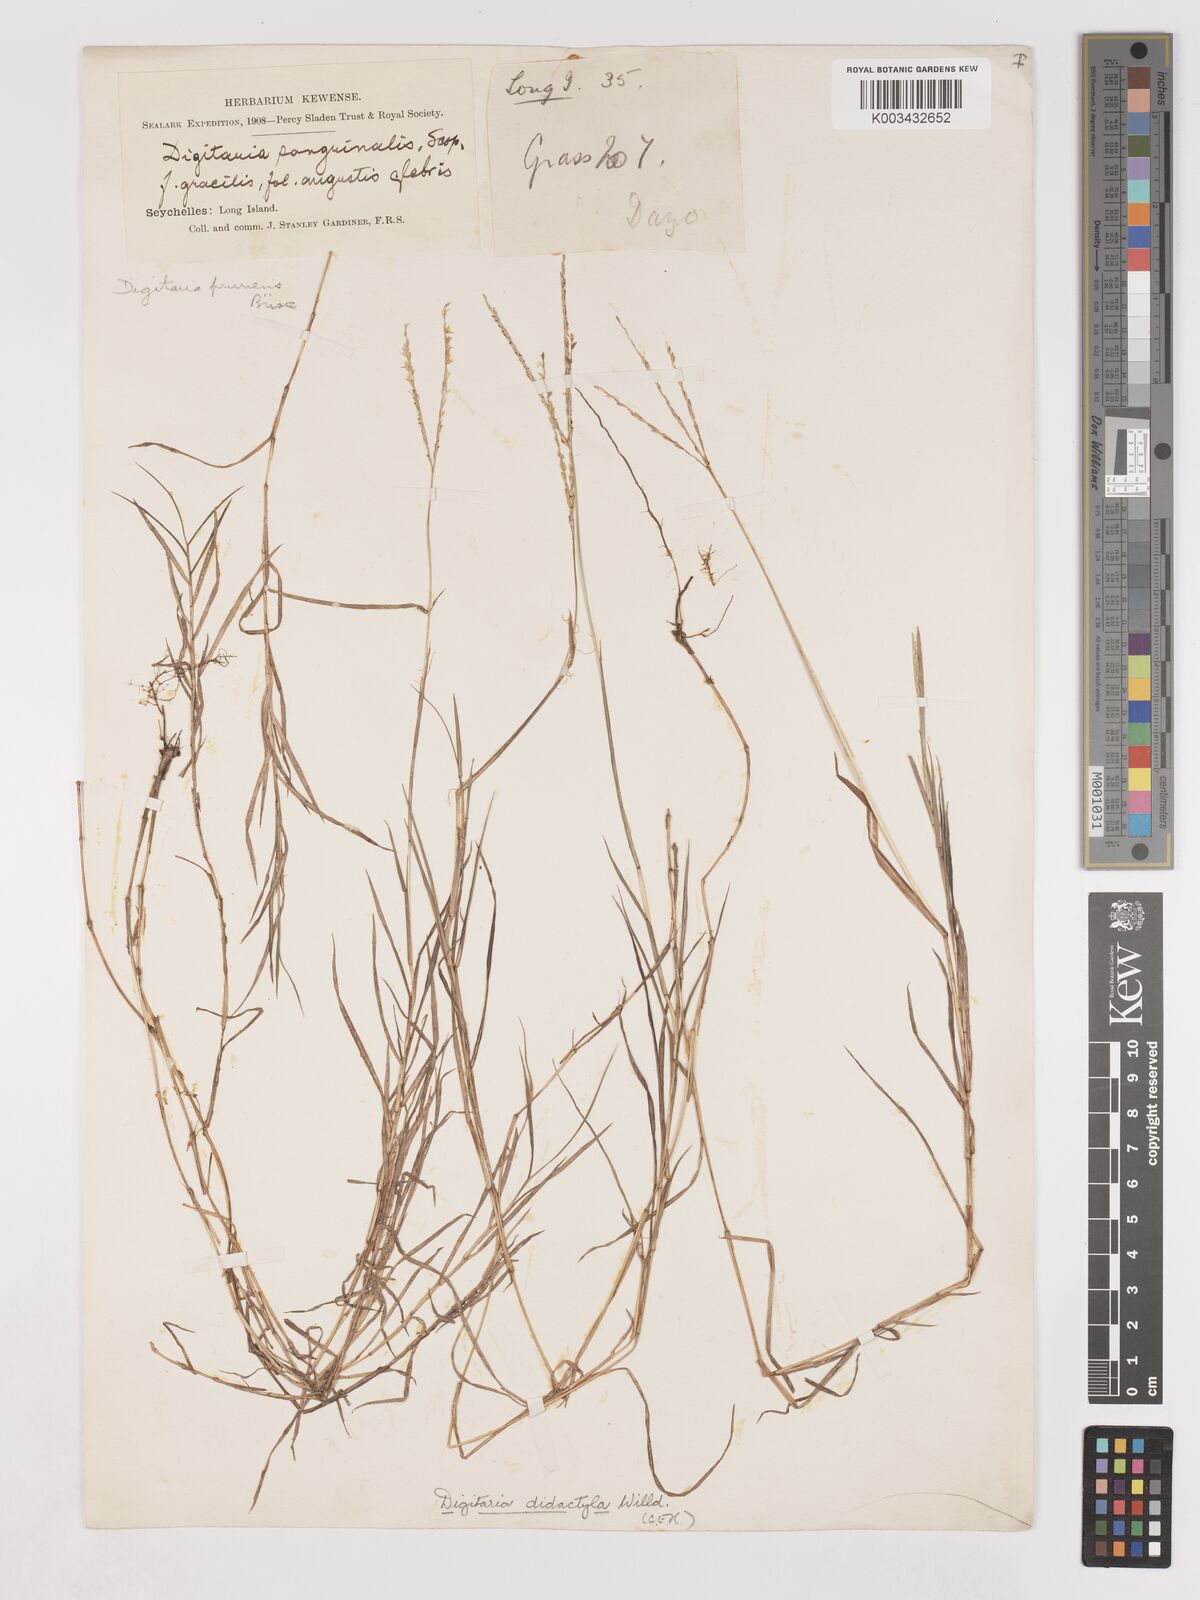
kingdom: Plantae
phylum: Tracheophyta
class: Liliopsida
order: Poales
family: Poaceae
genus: Digitaria
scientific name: Digitaria didactyla
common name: Blue couch
